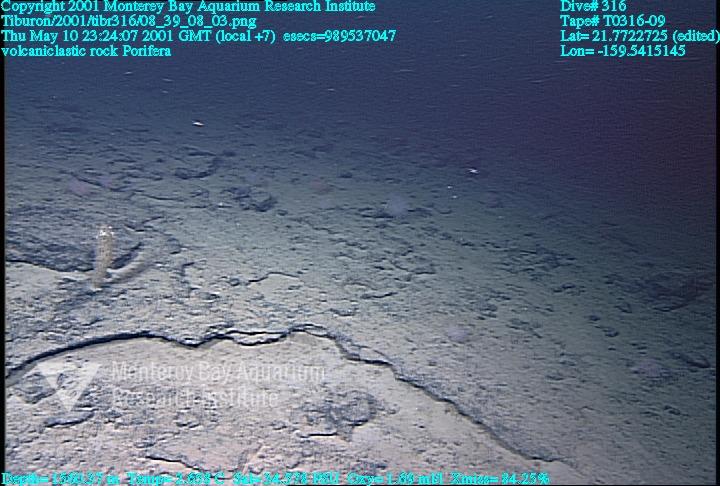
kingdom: Animalia
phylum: Porifera
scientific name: Porifera
